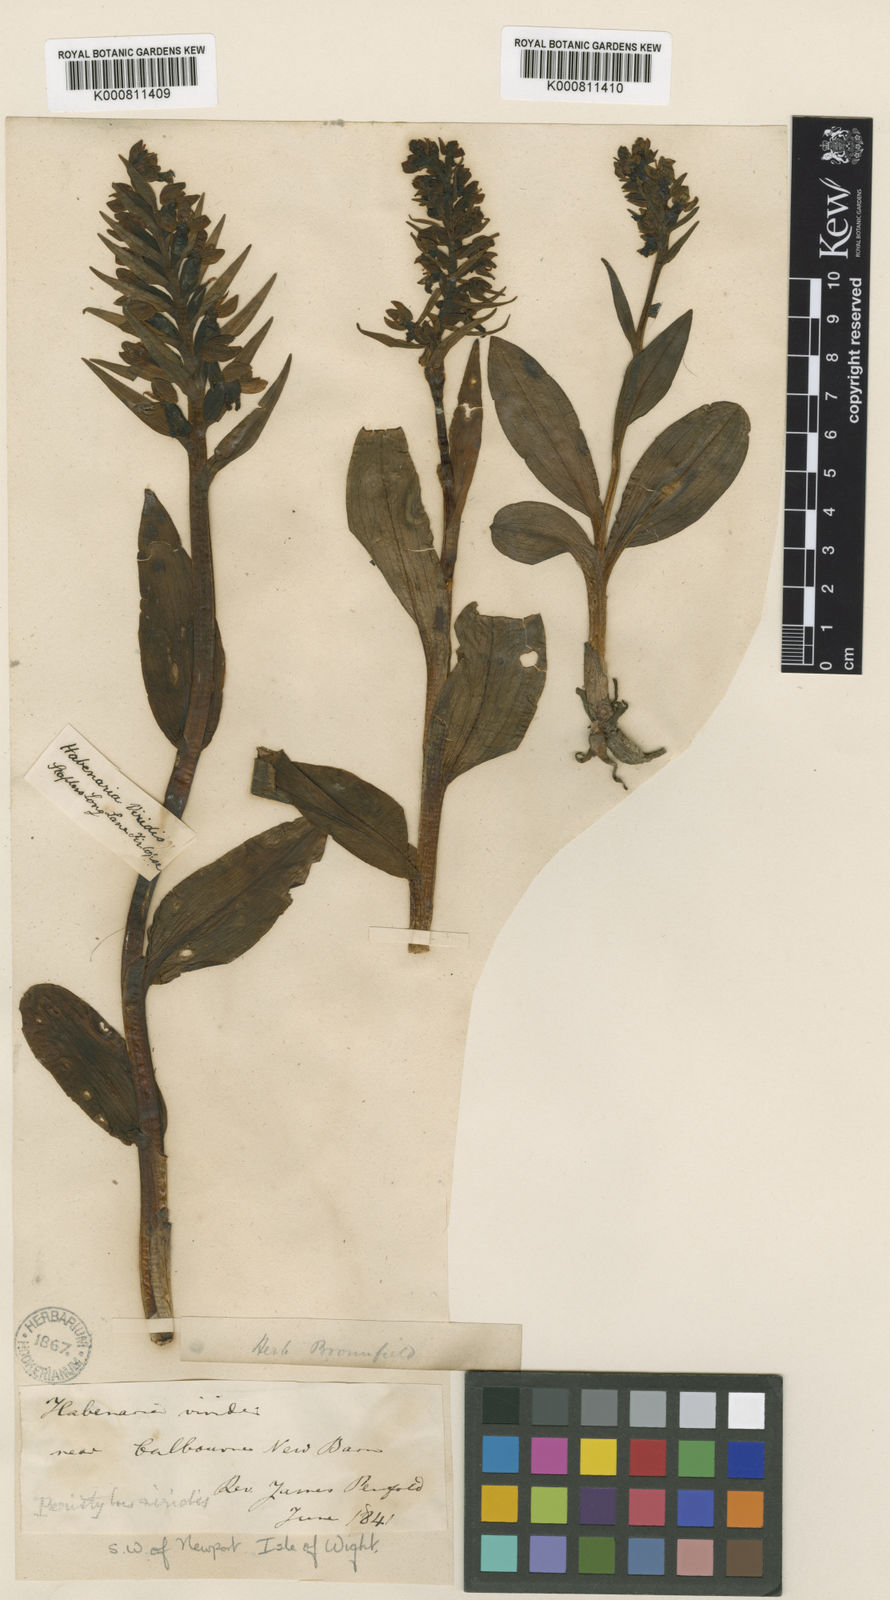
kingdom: Plantae
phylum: Tracheophyta
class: Liliopsida
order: Asparagales
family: Orchidaceae
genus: Dactylorhiza
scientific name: Dactylorhiza viridis
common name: Longbract frog orchid
